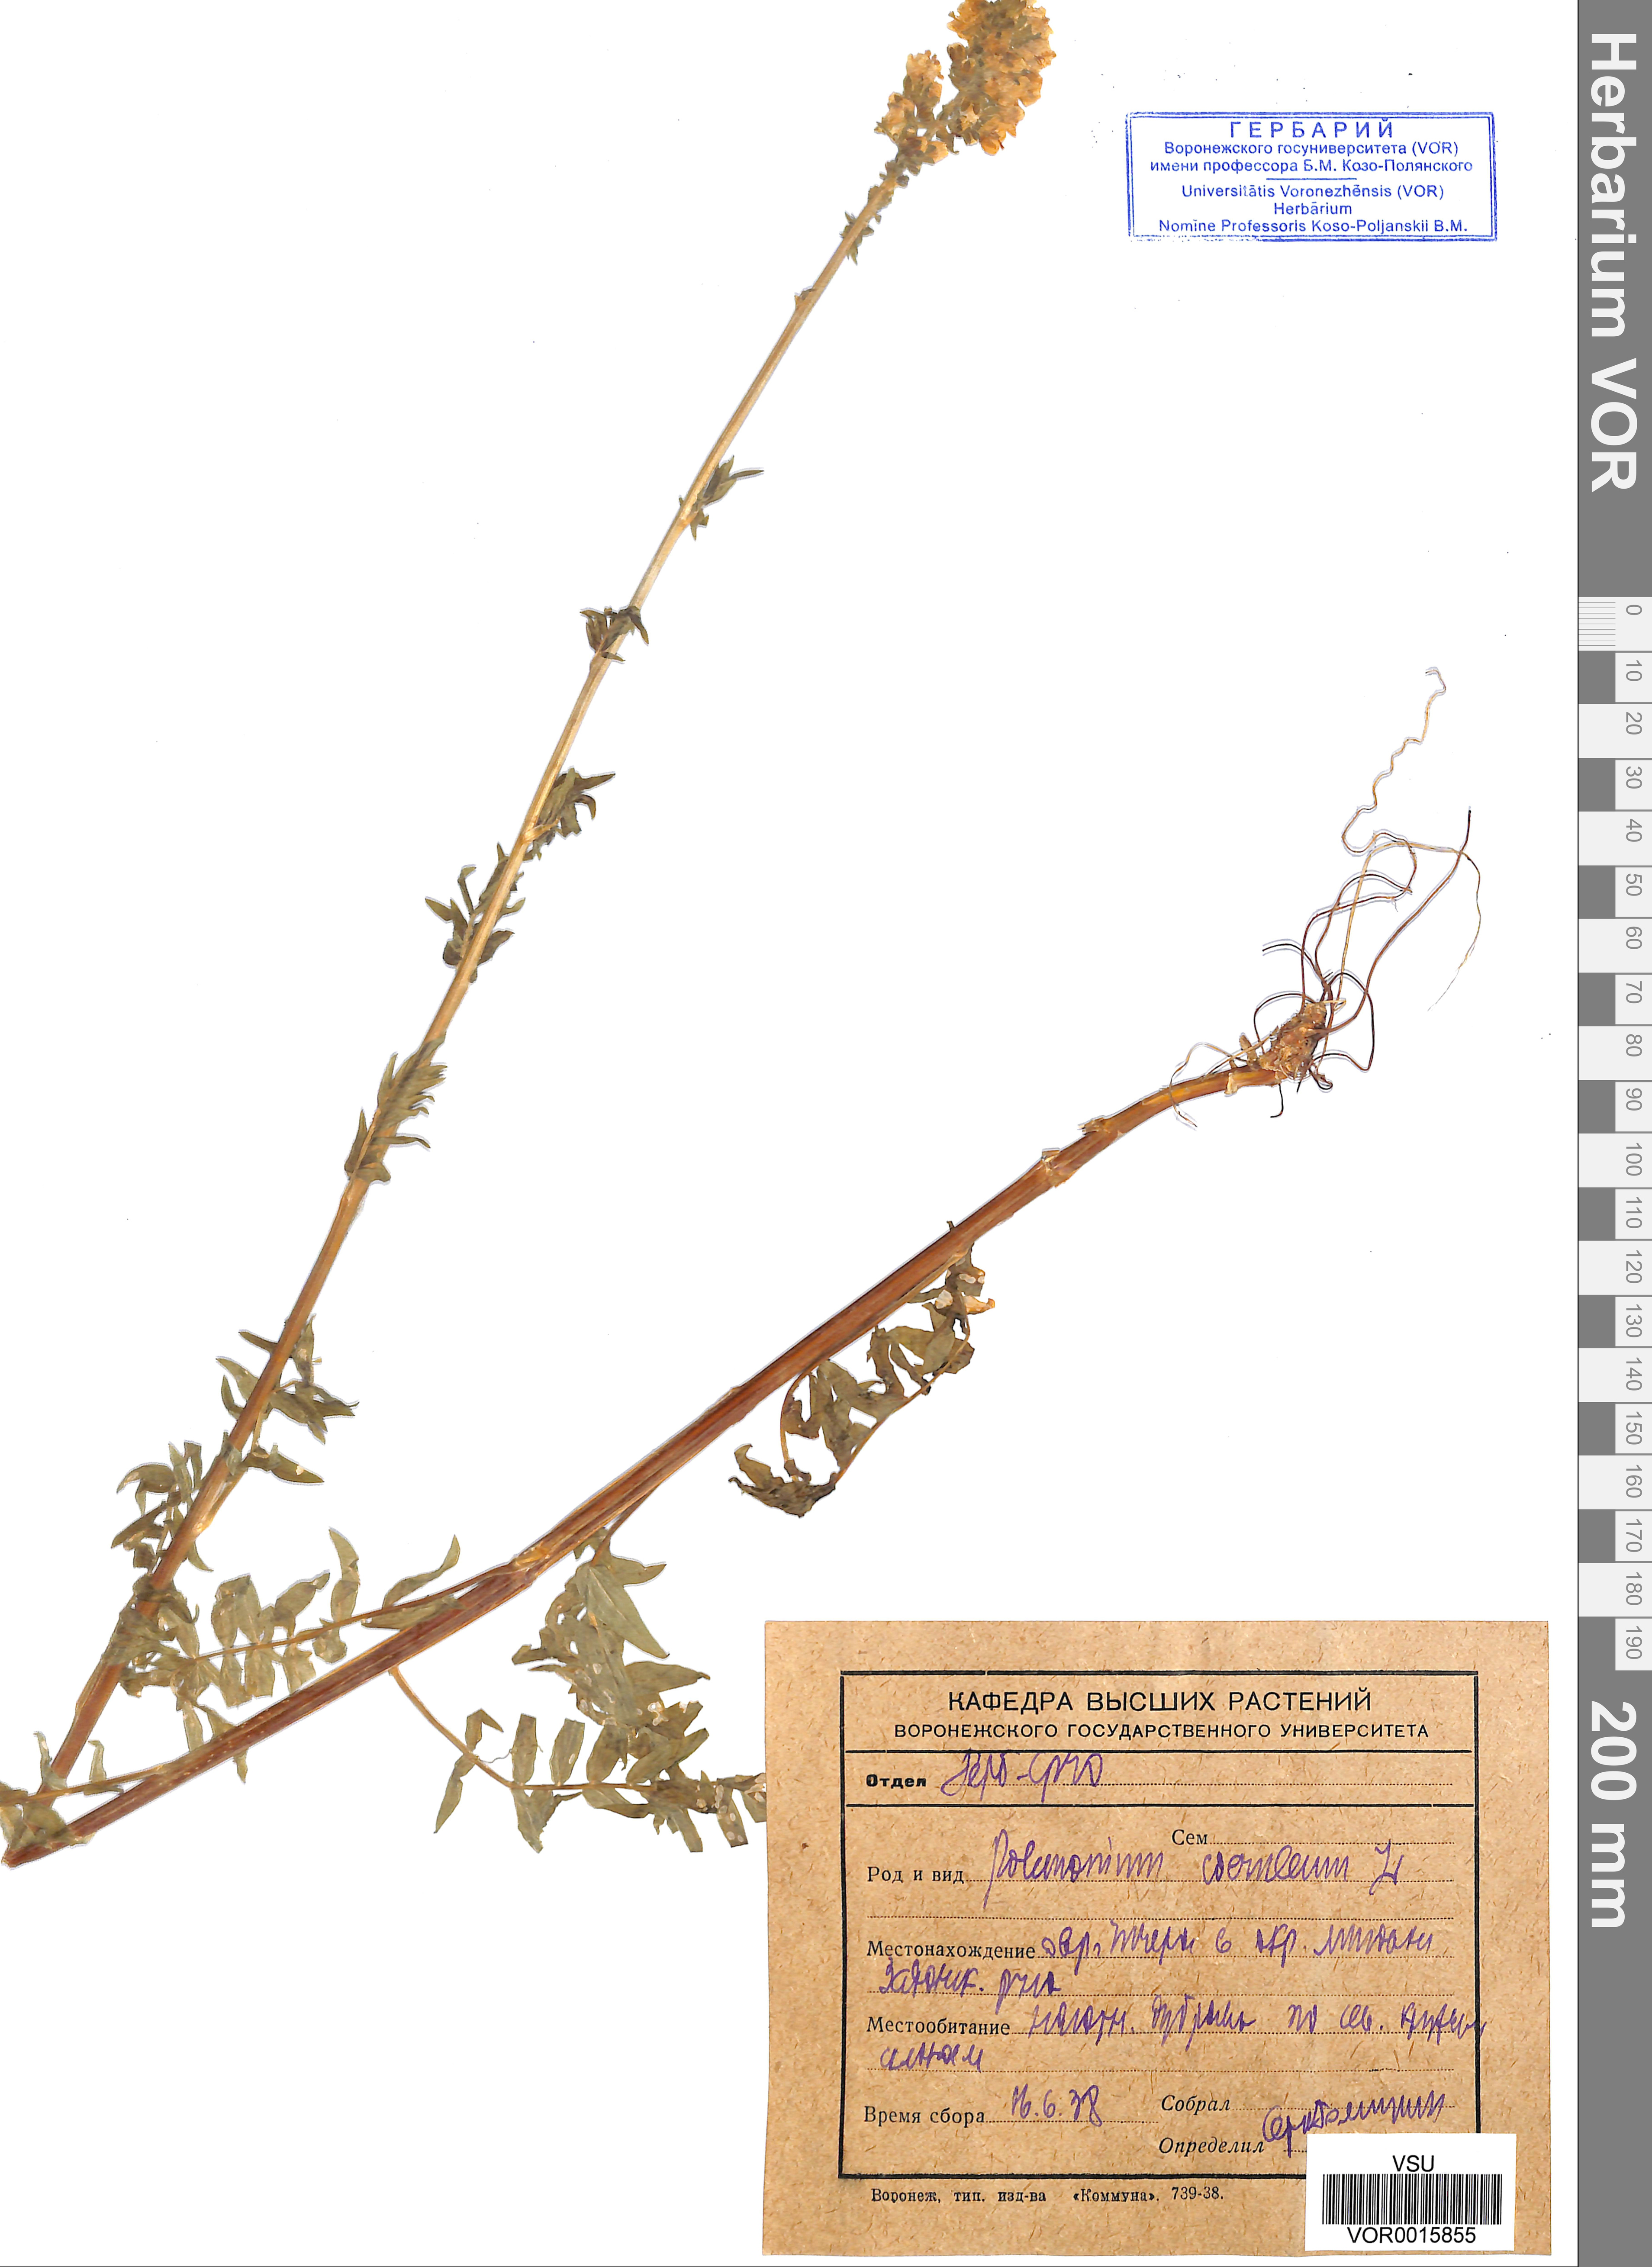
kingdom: Plantae
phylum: Tracheophyta
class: Magnoliopsida
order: Ericales
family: Polemoniaceae
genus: Polemonium
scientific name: Polemonium caeruleum
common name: Jacob's-ladder
